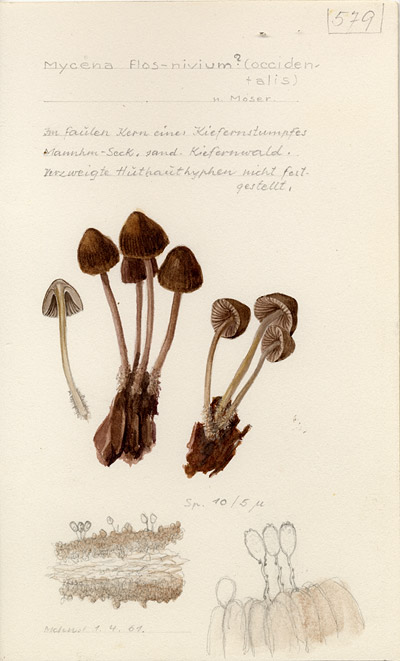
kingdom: Fungi
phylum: Basidiomycota
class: Agaricomycetes
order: Agaricales
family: Mycenaceae
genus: Mycena
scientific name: Mycena flos-nivium
